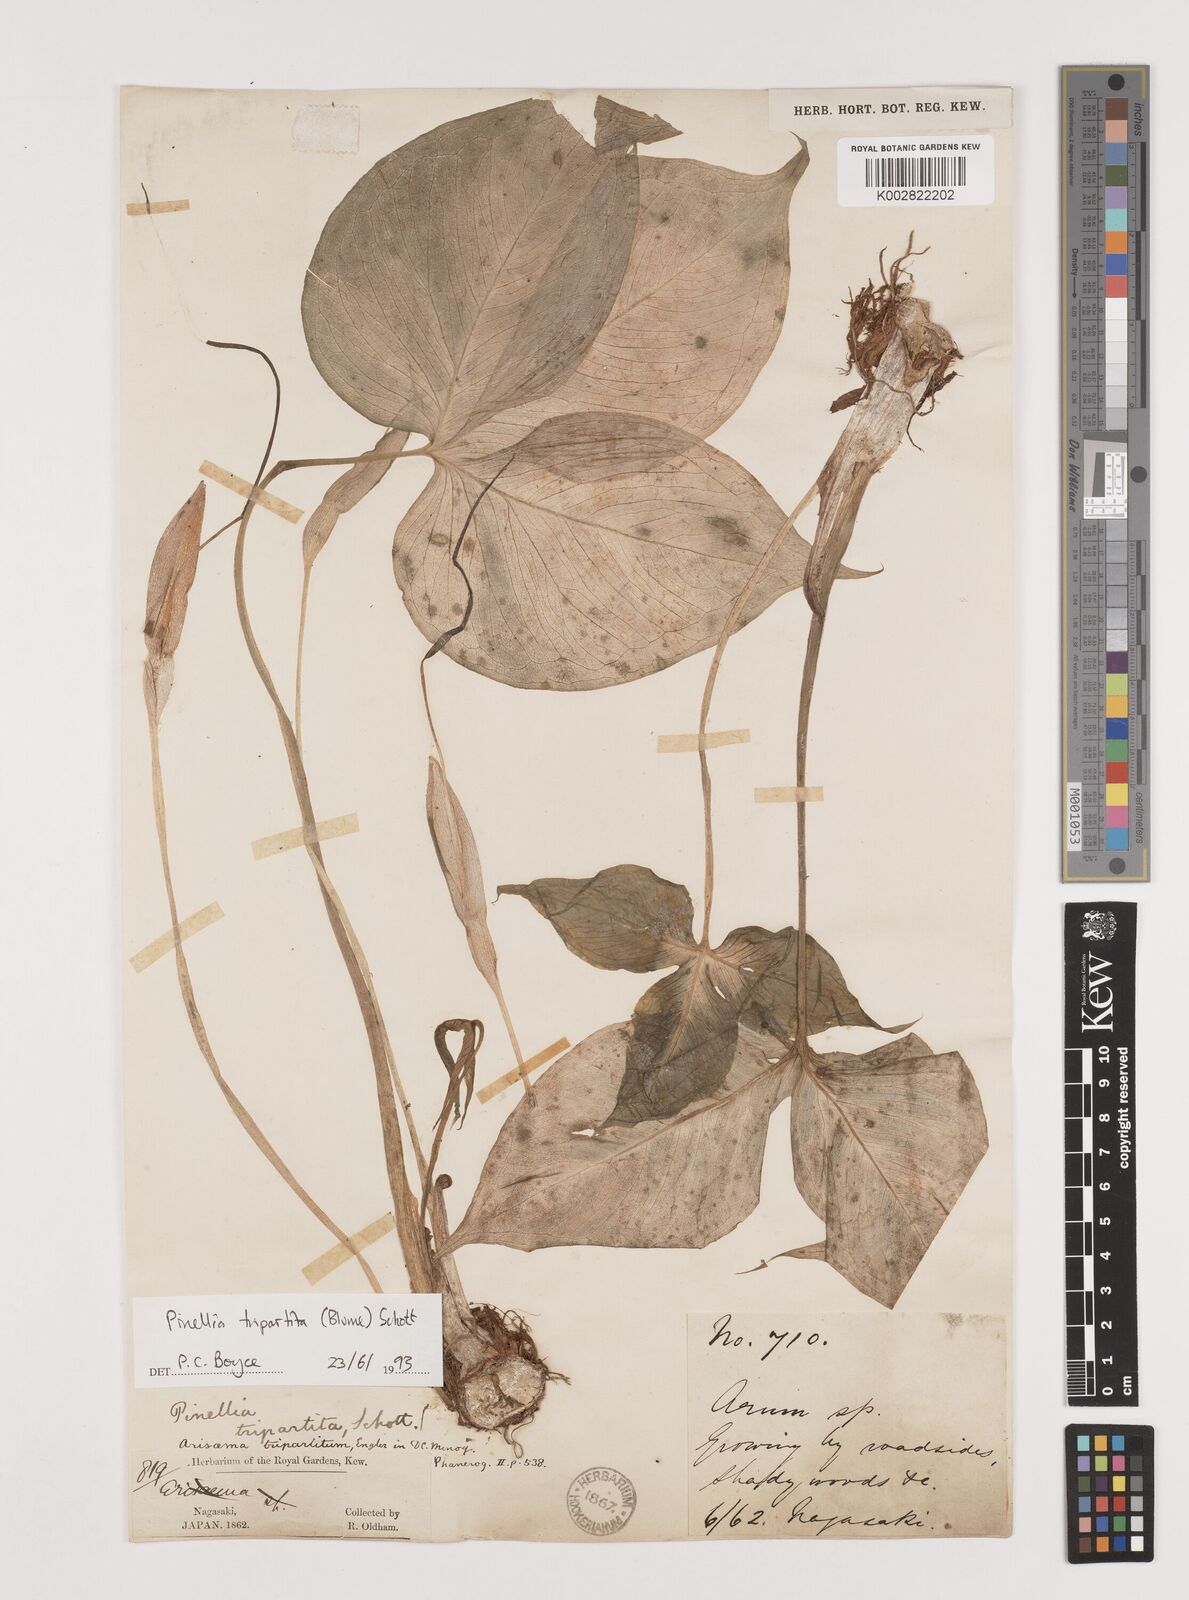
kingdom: Plantae
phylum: Tracheophyta
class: Liliopsida
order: Alismatales
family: Araceae
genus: Pinellia
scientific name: Pinellia tripartita
